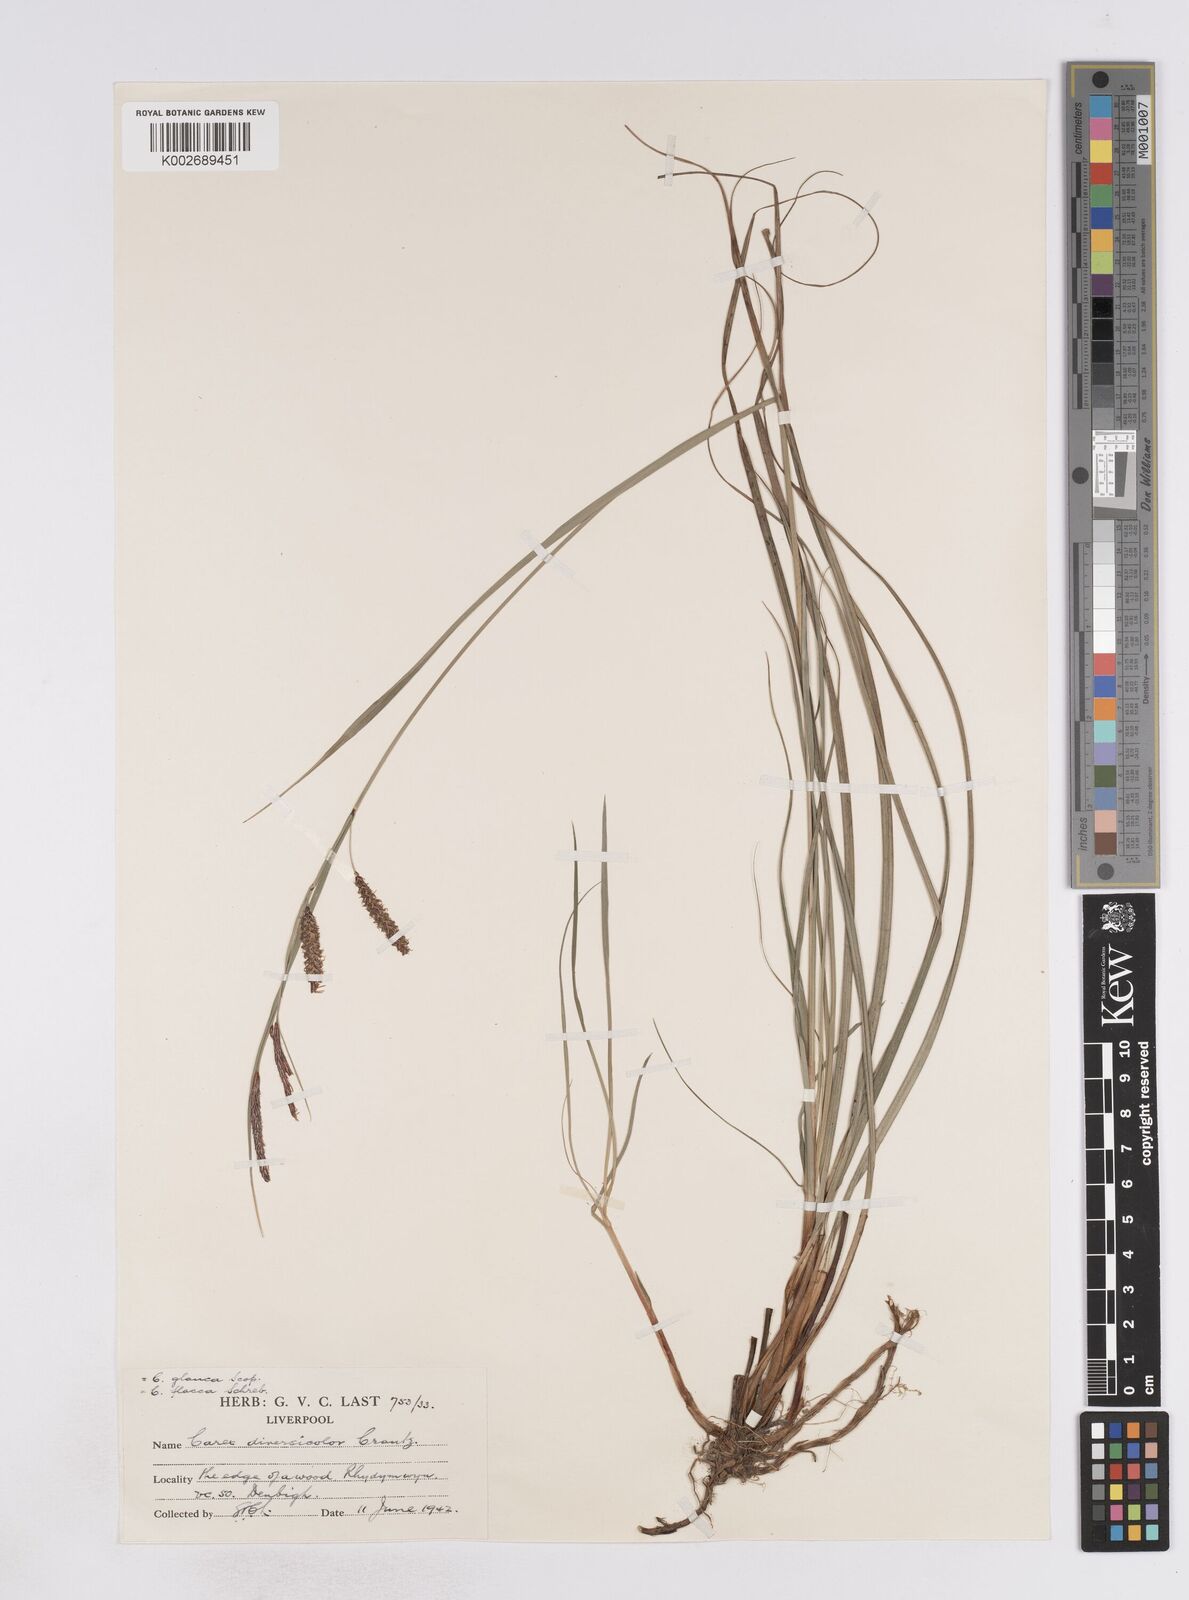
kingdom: Plantae
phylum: Tracheophyta
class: Liliopsida
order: Poales
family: Cyperaceae
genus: Carex
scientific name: Carex flacca
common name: Glaucous sedge
